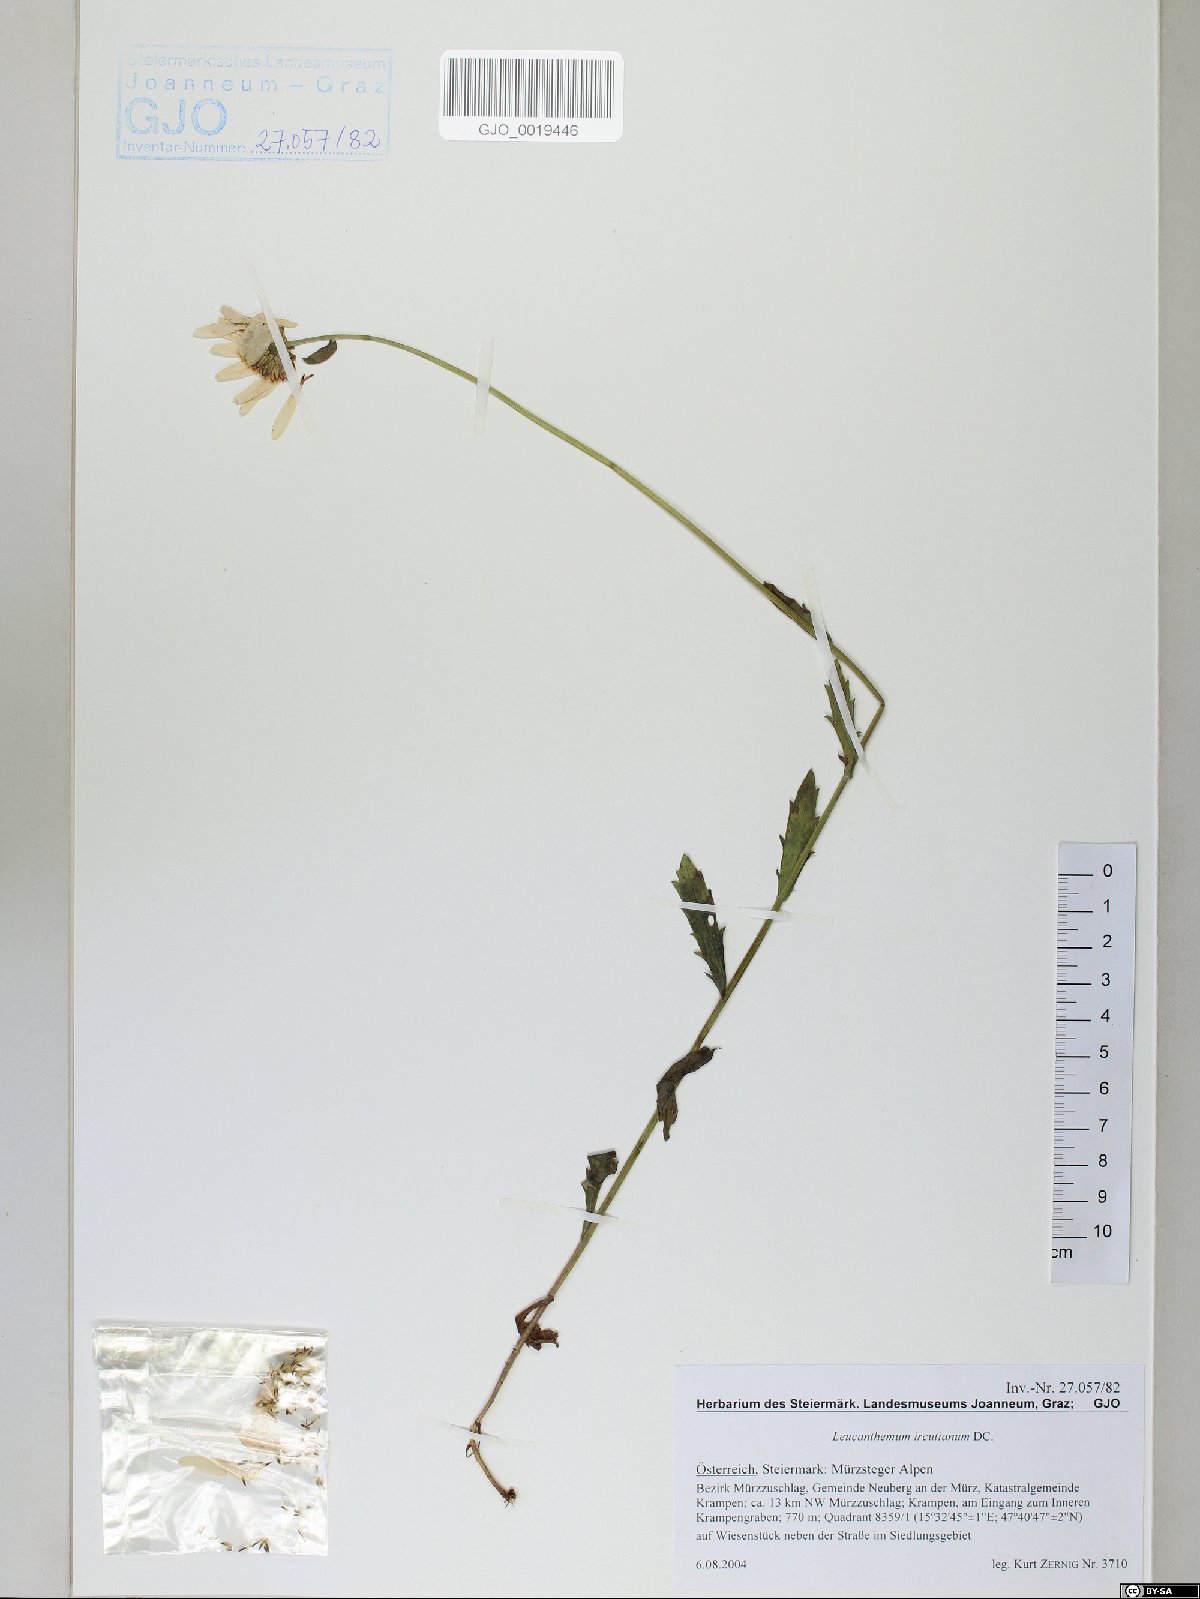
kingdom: Plantae
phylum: Tracheophyta
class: Magnoliopsida
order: Asterales
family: Asteraceae
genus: Leucanthemum
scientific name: Leucanthemum ircutianum
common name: Daisy
